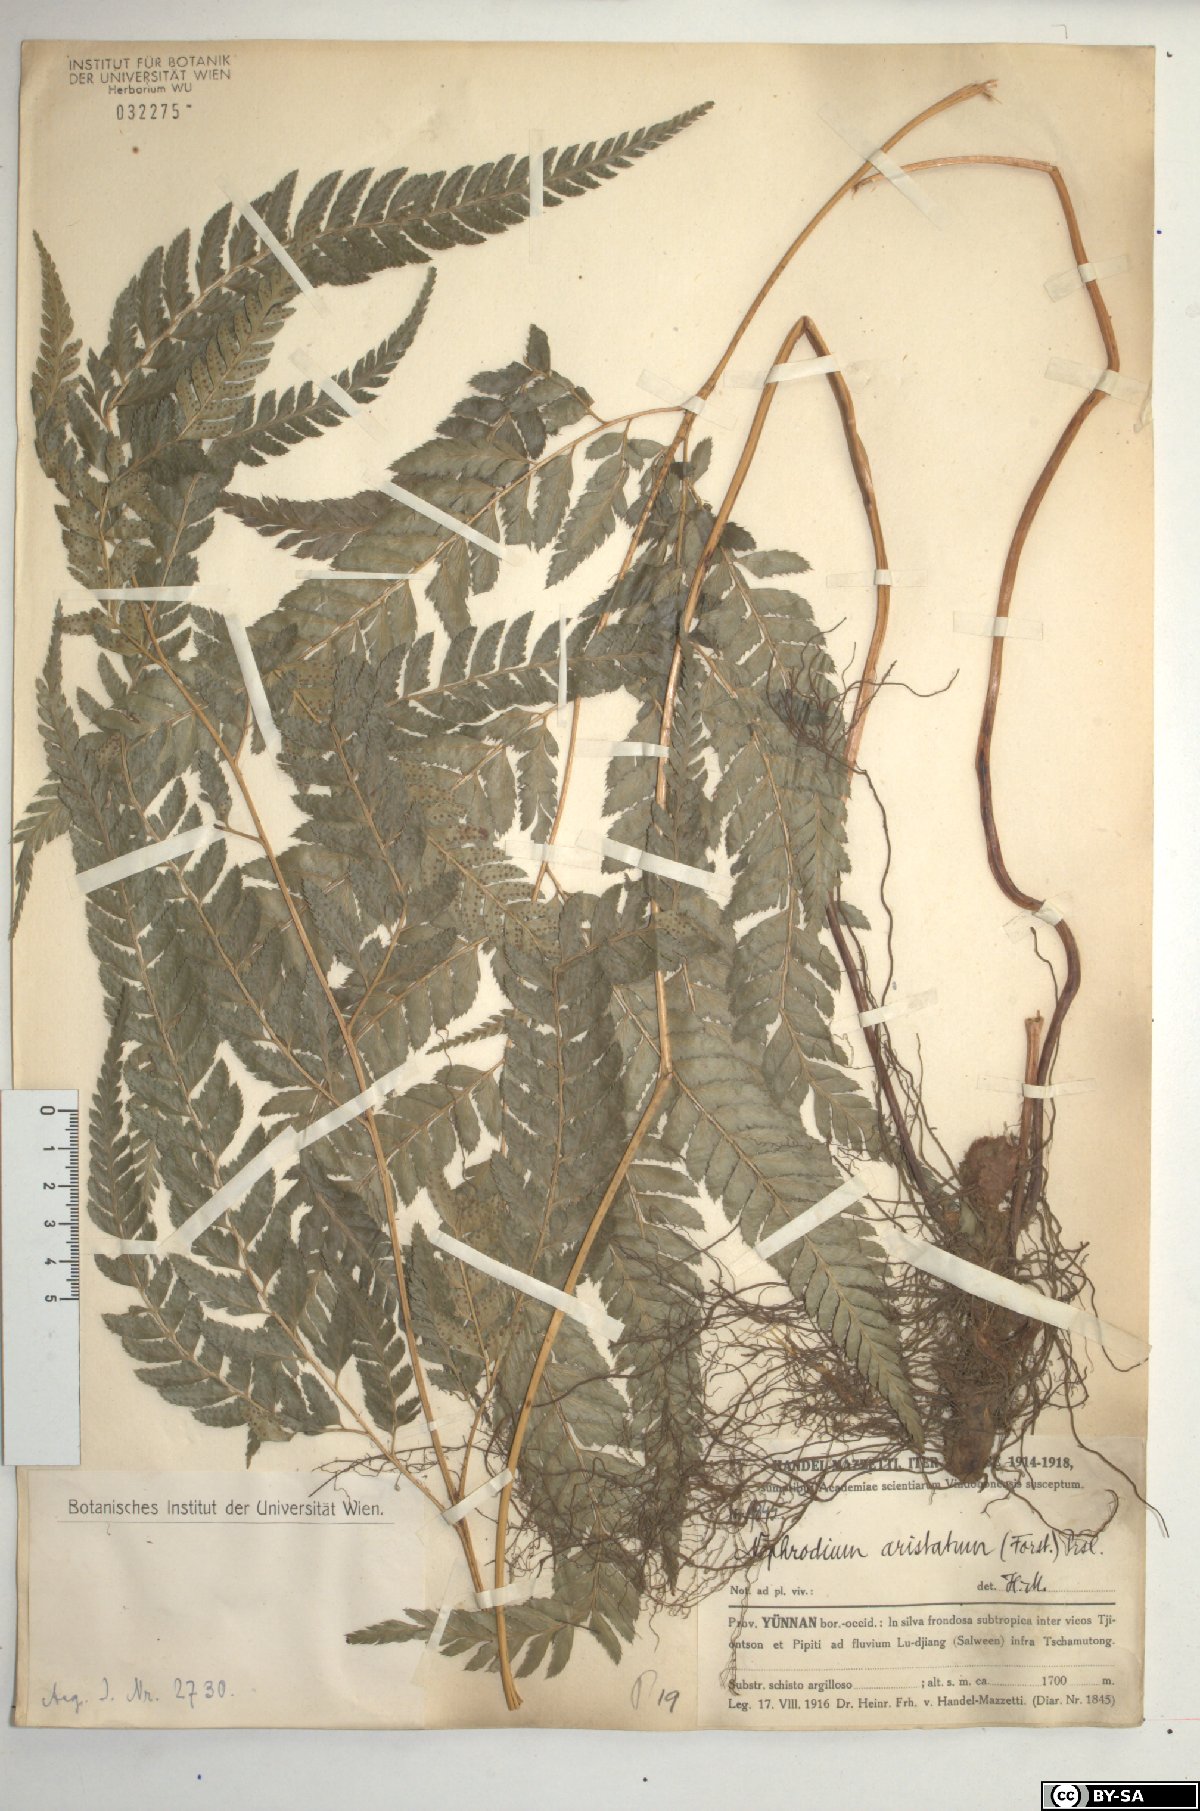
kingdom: Plantae
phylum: Tracheophyta
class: Polypodiopsida
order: Polypodiales
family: Dryopteridaceae
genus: Arachniodes
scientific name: Arachniodes aristata
